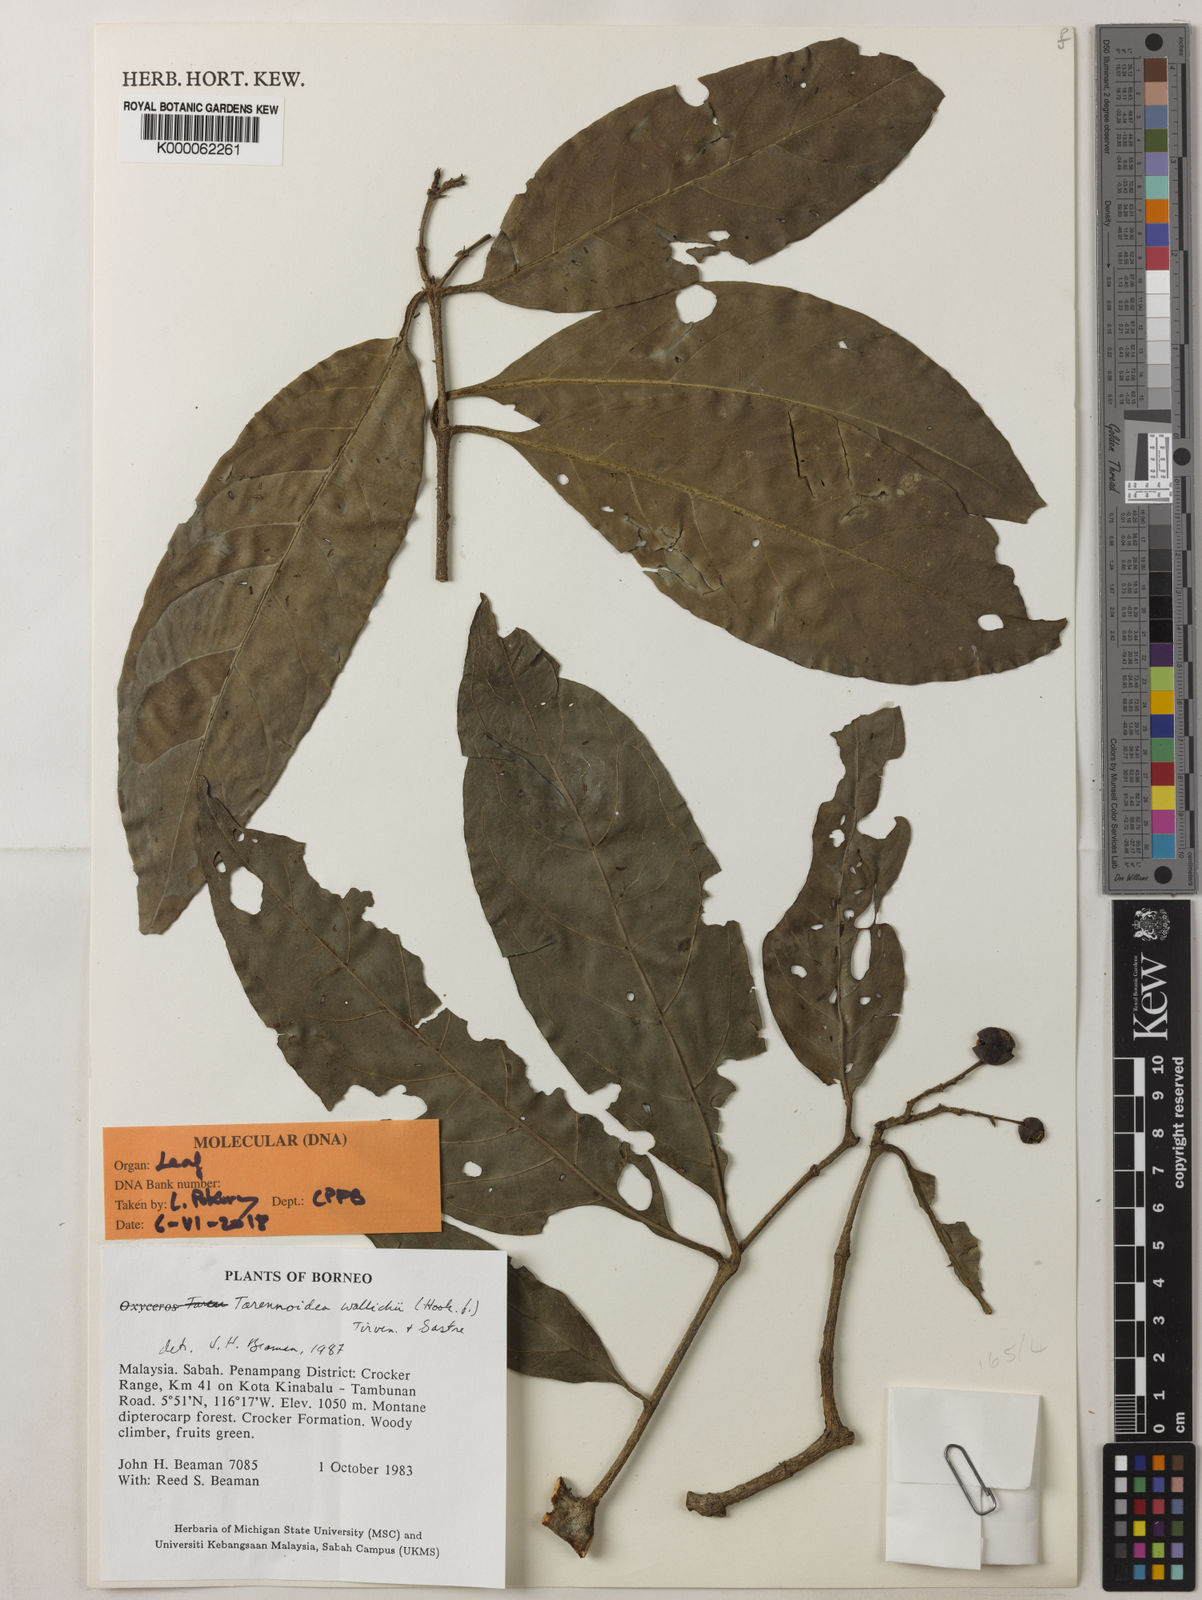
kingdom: Plantae
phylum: Tracheophyta
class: Magnoliopsida
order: Gentianales
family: Rubiaceae
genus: Tarennoidea
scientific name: Tarennoidea wallichii
